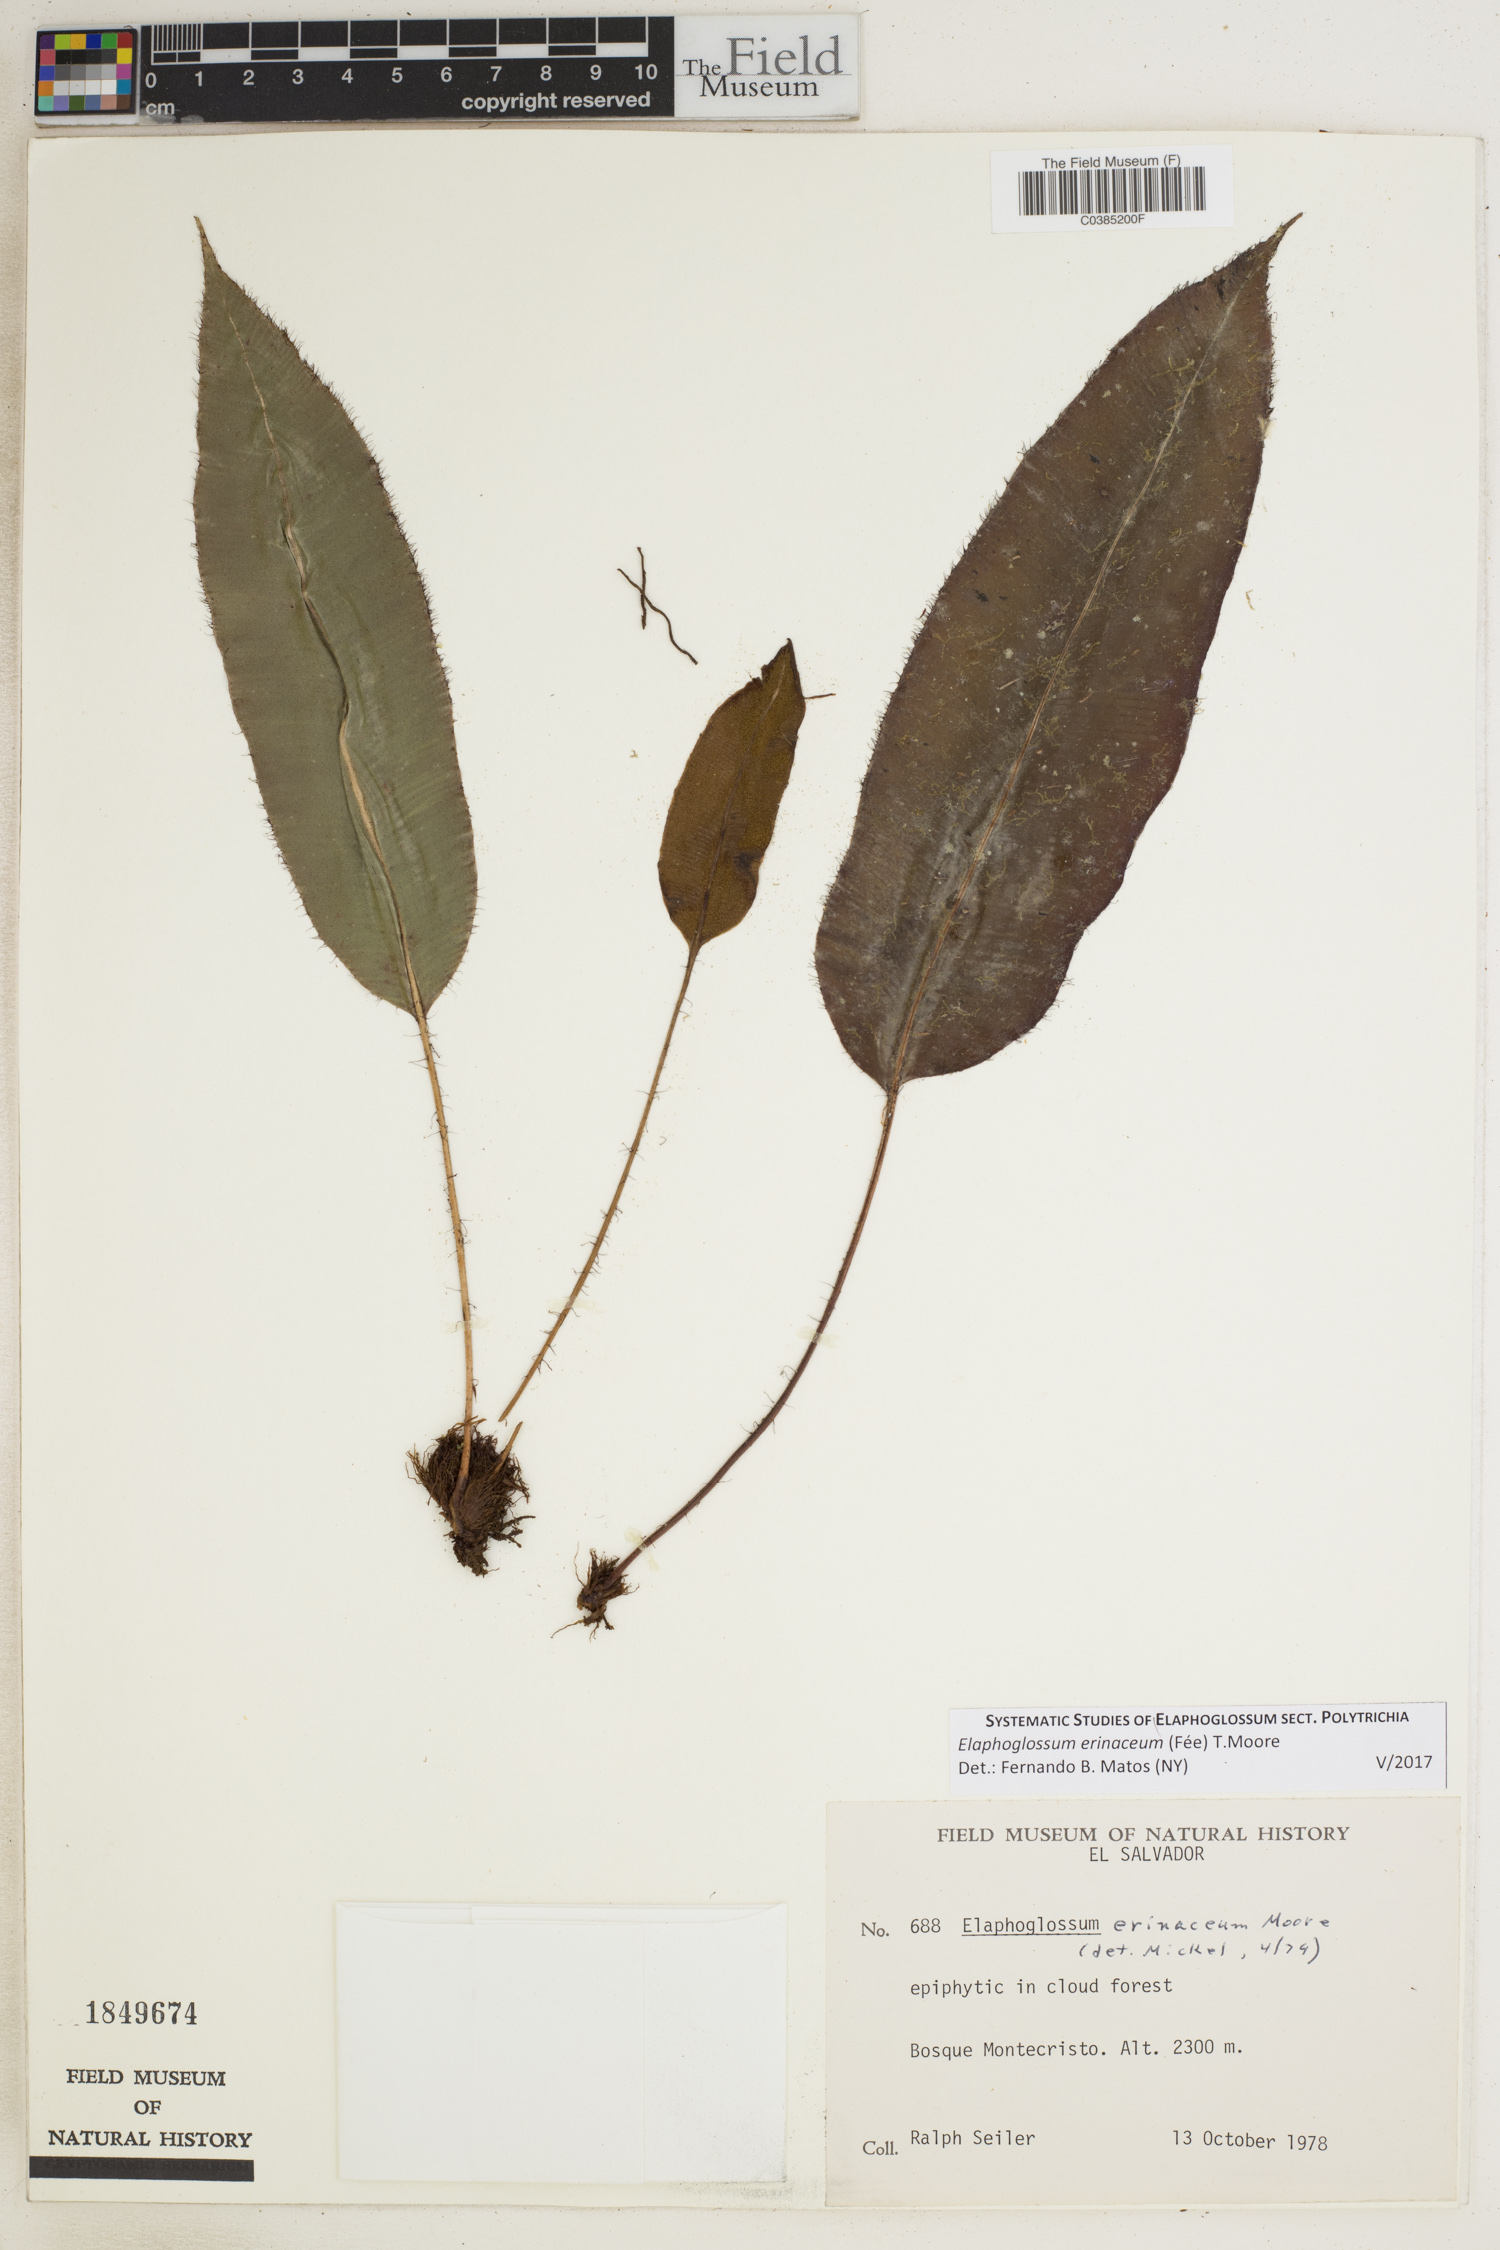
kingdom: Plantae
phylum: Tracheophyta
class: Polypodiopsida
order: Polypodiales
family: Dryopteridaceae
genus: Elaphoglossum
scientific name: Elaphoglossum erinaceum
